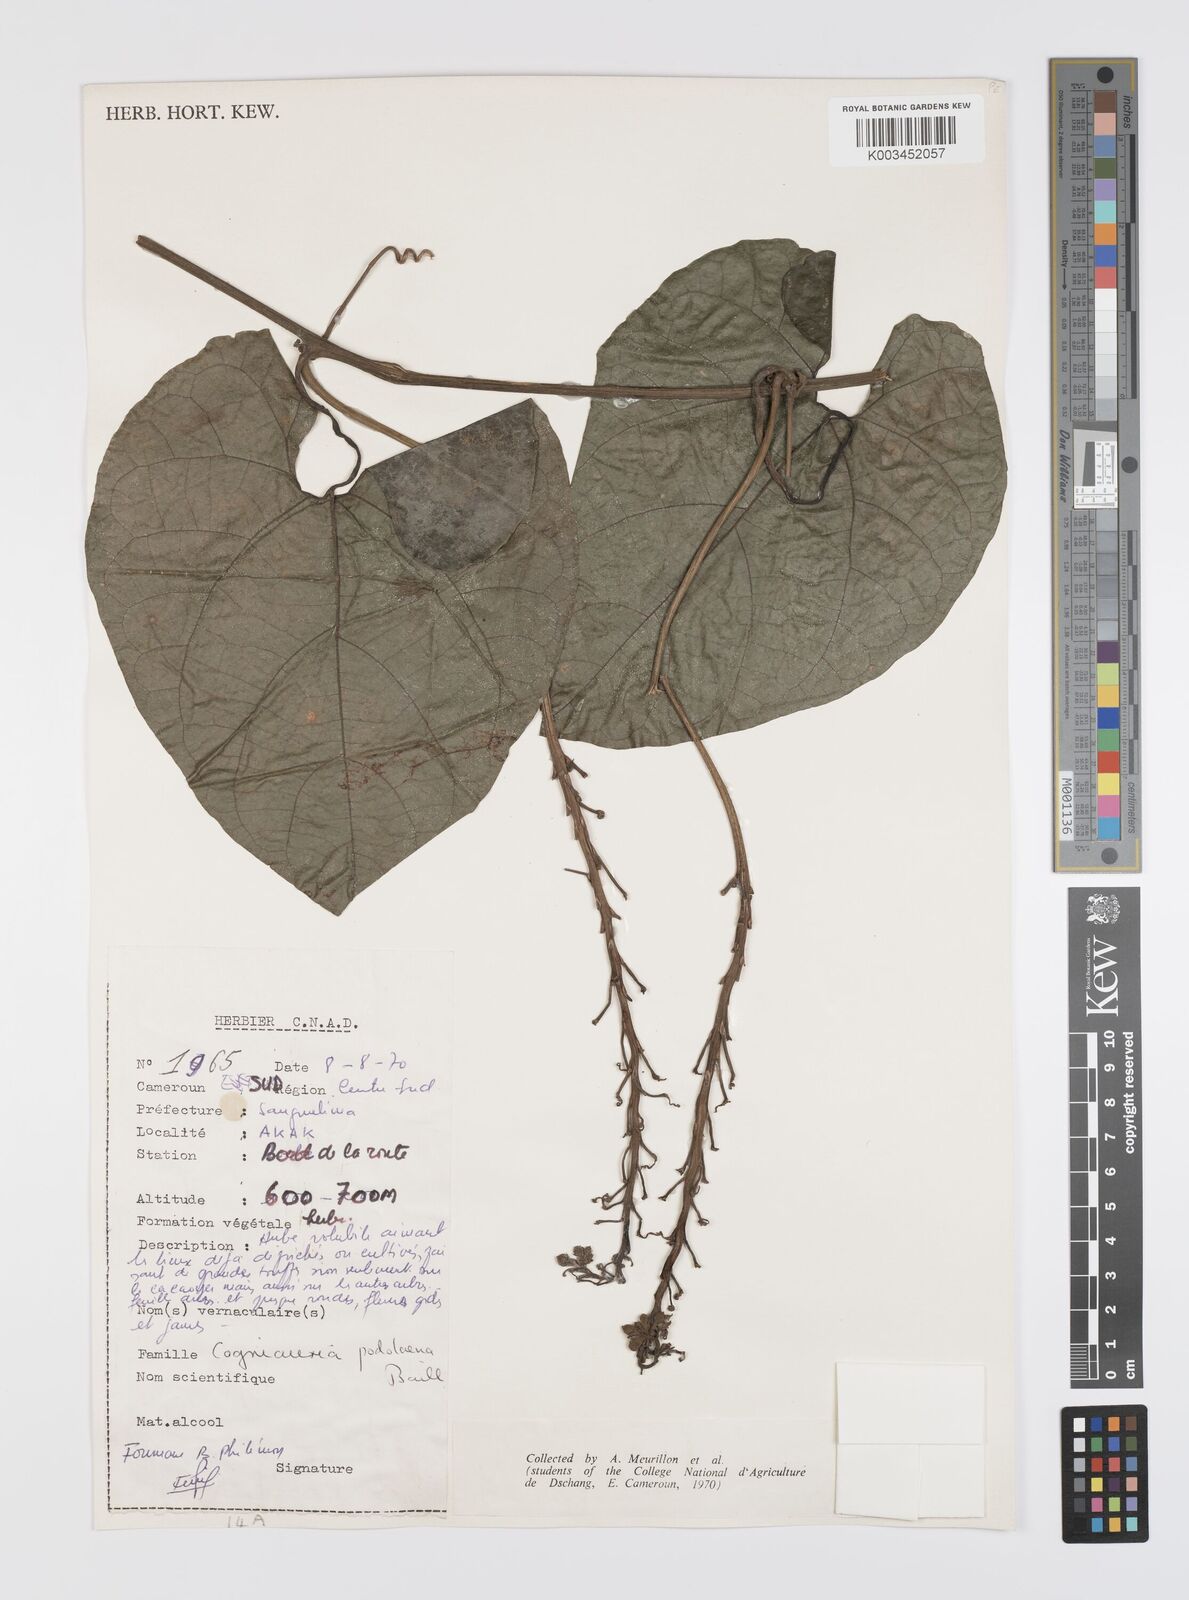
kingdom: Plantae
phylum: Tracheophyta
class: Magnoliopsida
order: Cucurbitales
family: Cucurbitaceae
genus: Cogniauxia
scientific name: Cogniauxia podolaena
